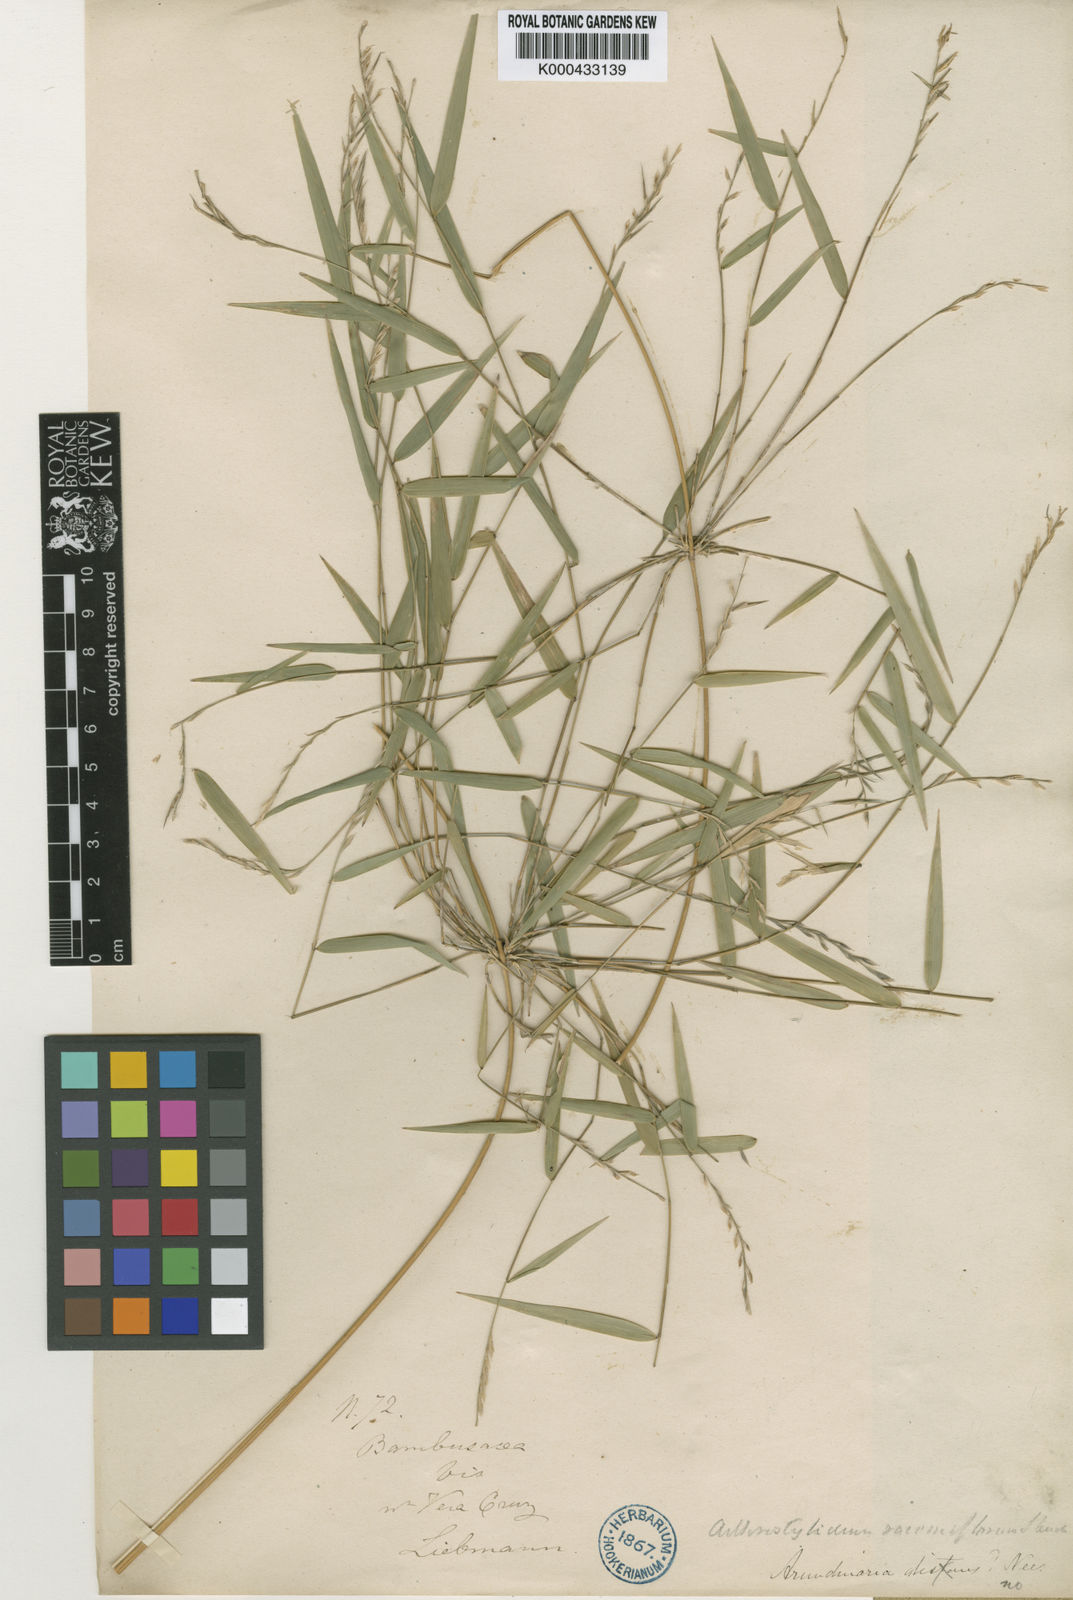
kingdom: Plantae
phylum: Tracheophyta
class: Liliopsida
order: Poales
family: Poaceae
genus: Rhipidocladum
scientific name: Rhipidocladum racemiflorum
